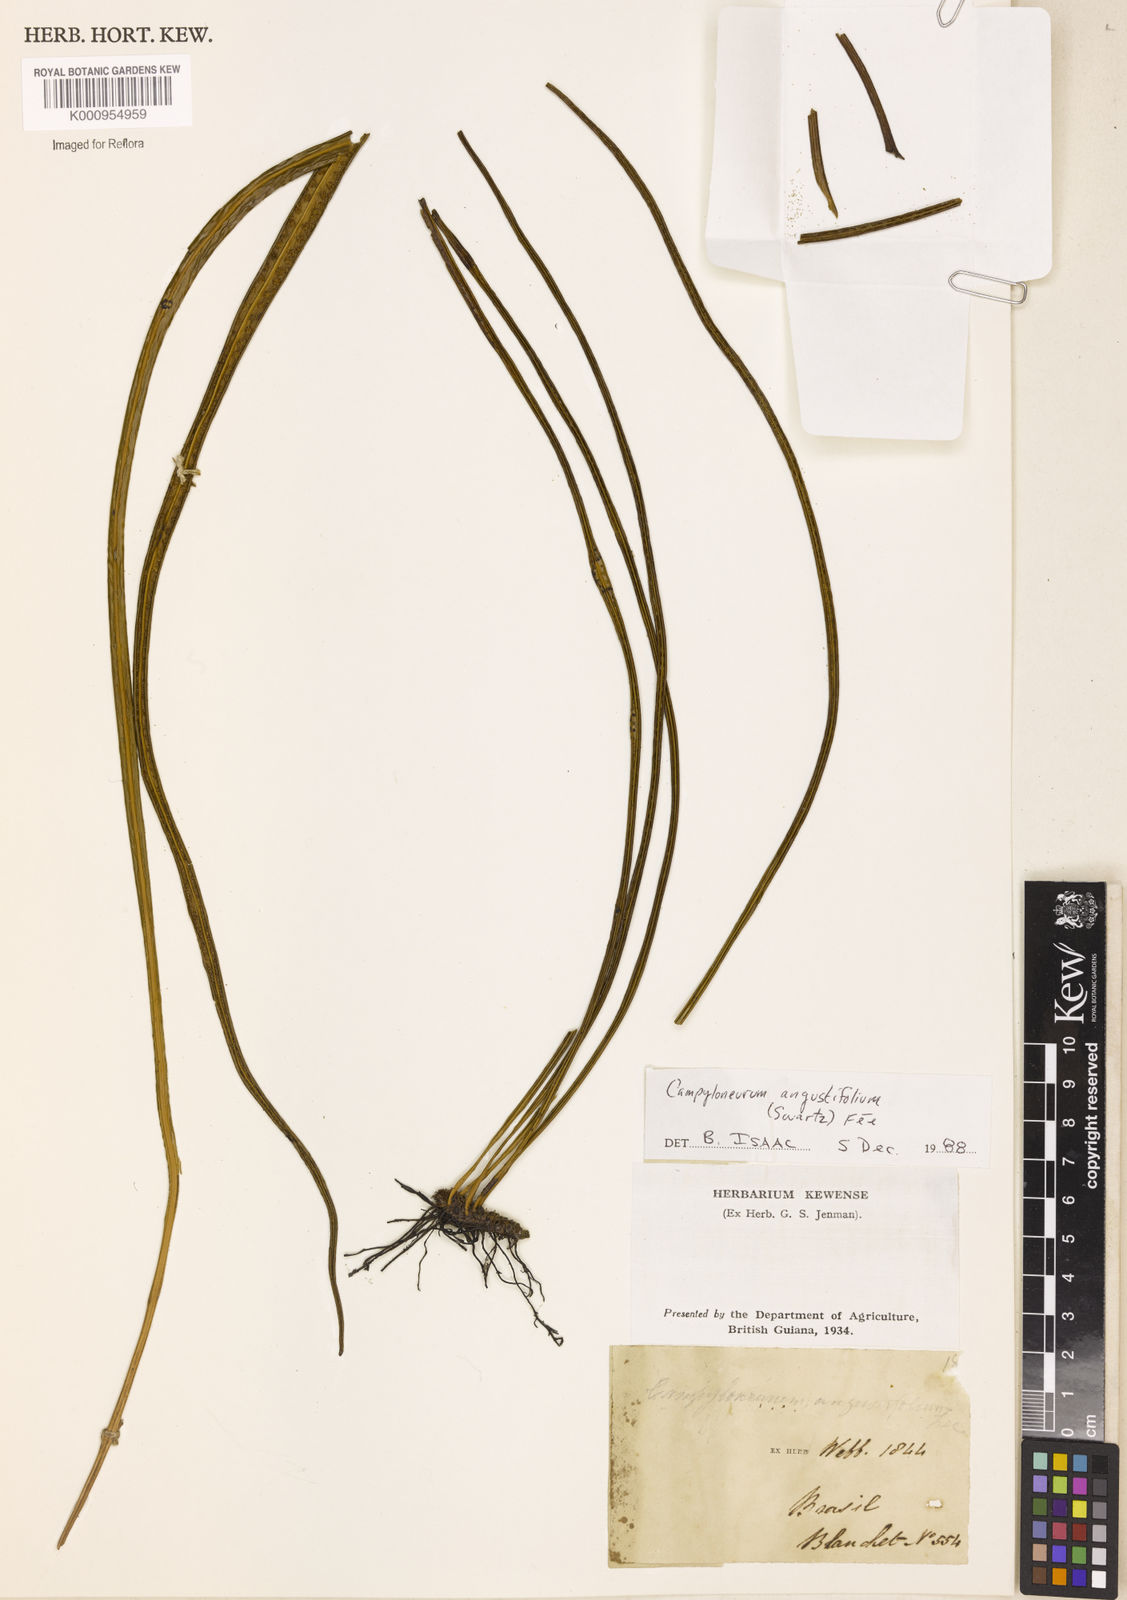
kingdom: Plantae
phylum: Tracheophyta
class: Polypodiopsida
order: Polypodiales
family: Polypodiaceae
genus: Campyloneurum
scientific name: Campyloneurum
